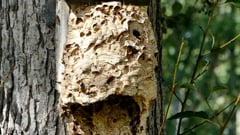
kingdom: Animalia
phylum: Arthropoda
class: Insecta
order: Hymenoptera
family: Vespidae
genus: Vespa
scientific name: Vespa crabro
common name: Hornet
